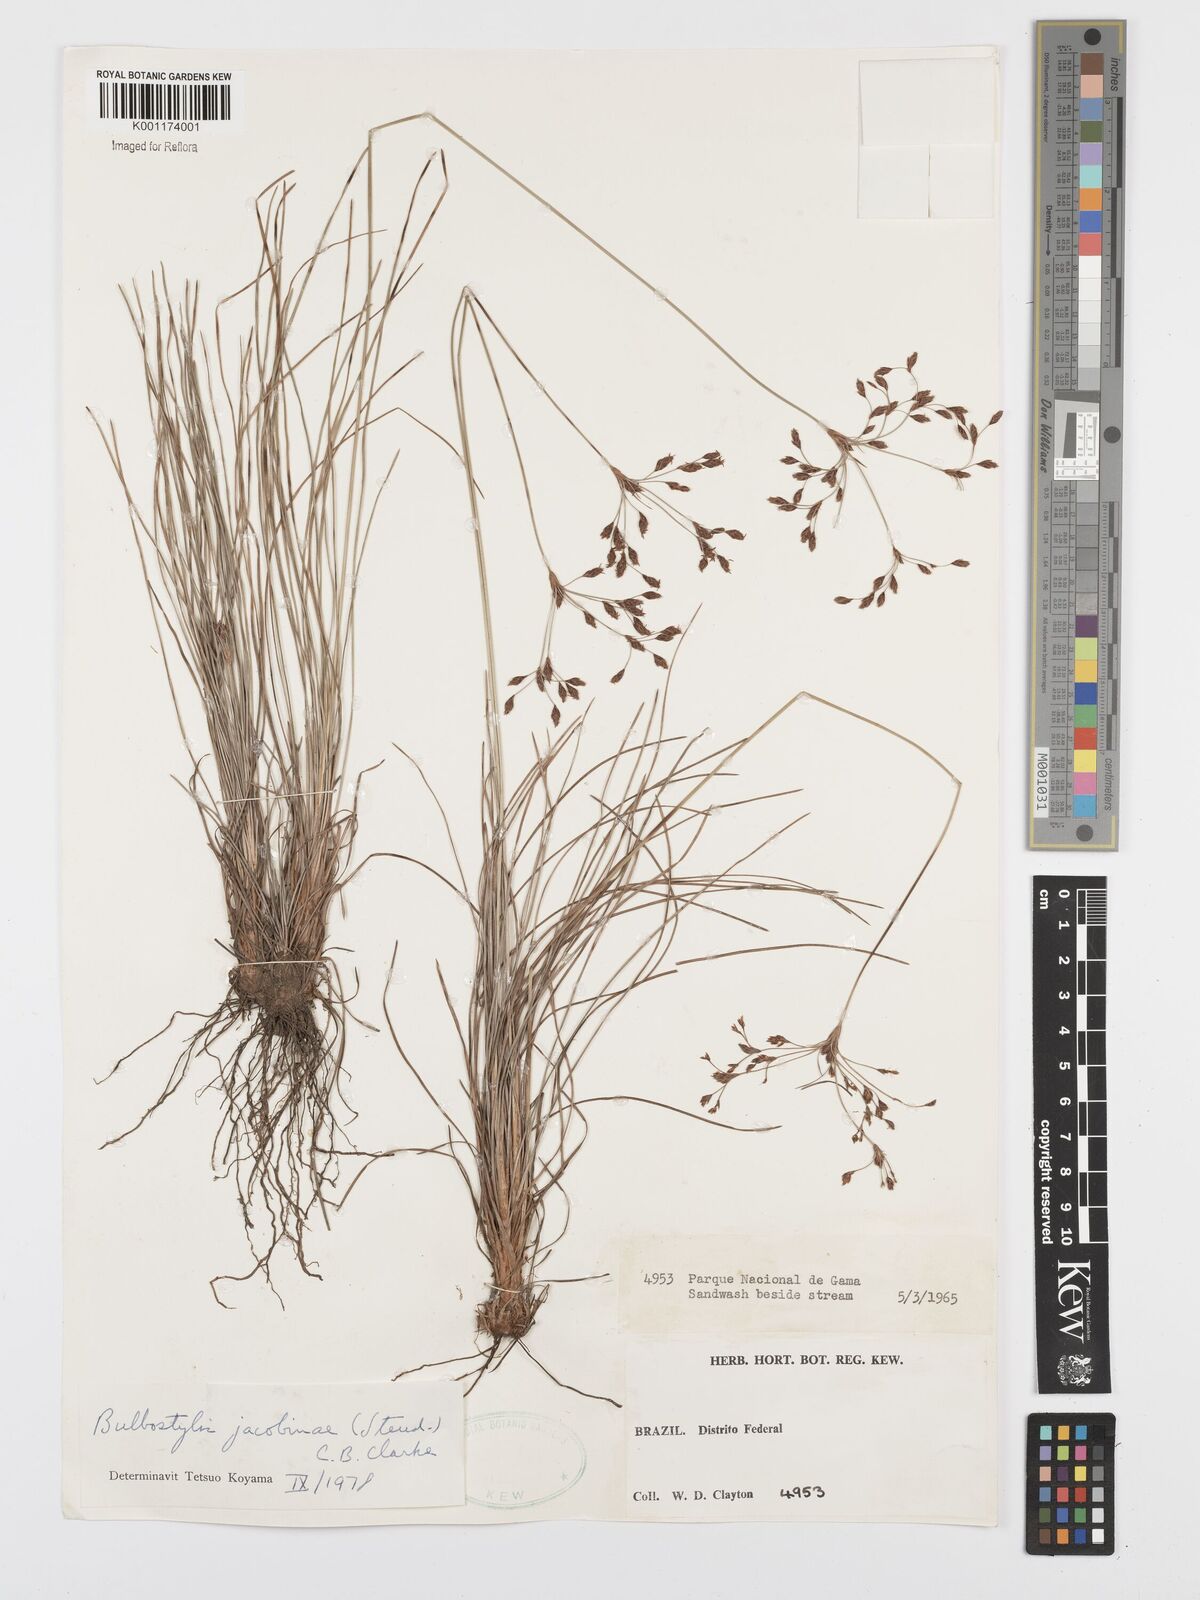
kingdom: Plantae
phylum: Tracheophyta
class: Liliopsida
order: Poales
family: Cyperaceae
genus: Bulbostylis
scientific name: Bulbostylis jacobinae
